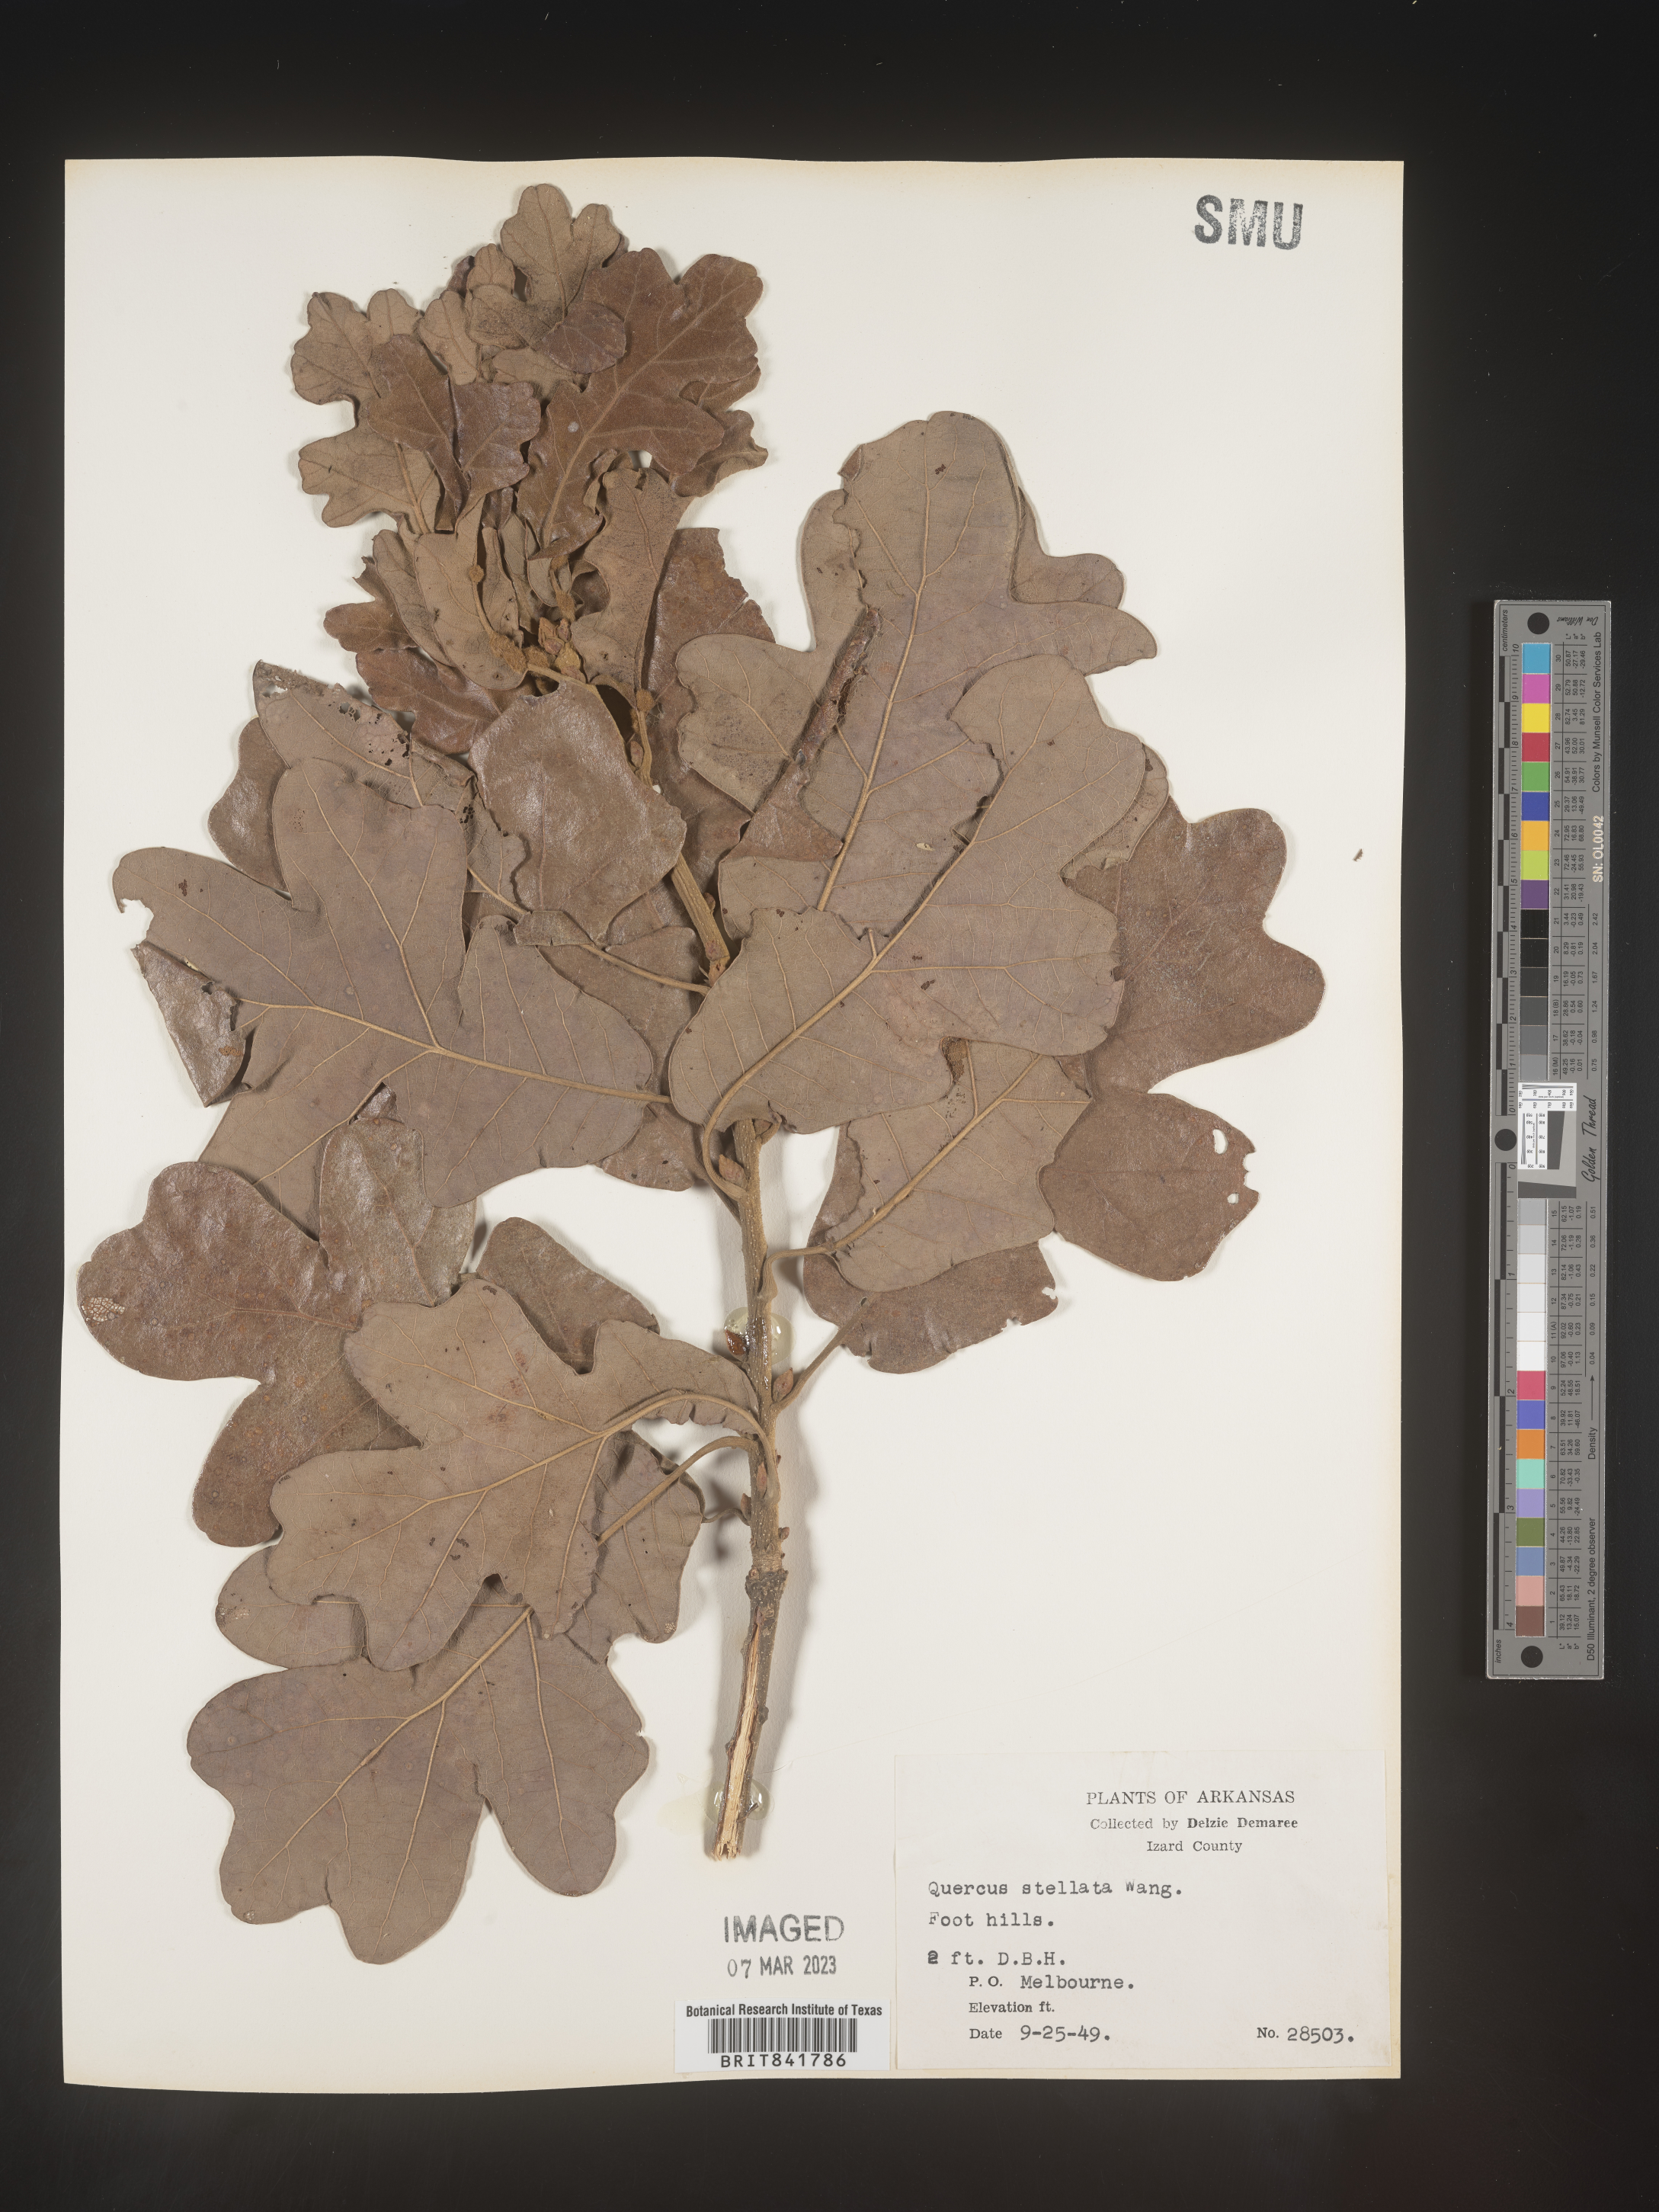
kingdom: Plantae
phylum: Tracheophyta
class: Magnoliopsida
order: Fagales
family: Fagaceae
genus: Quercus
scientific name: Quercus stellata
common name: Post oak
